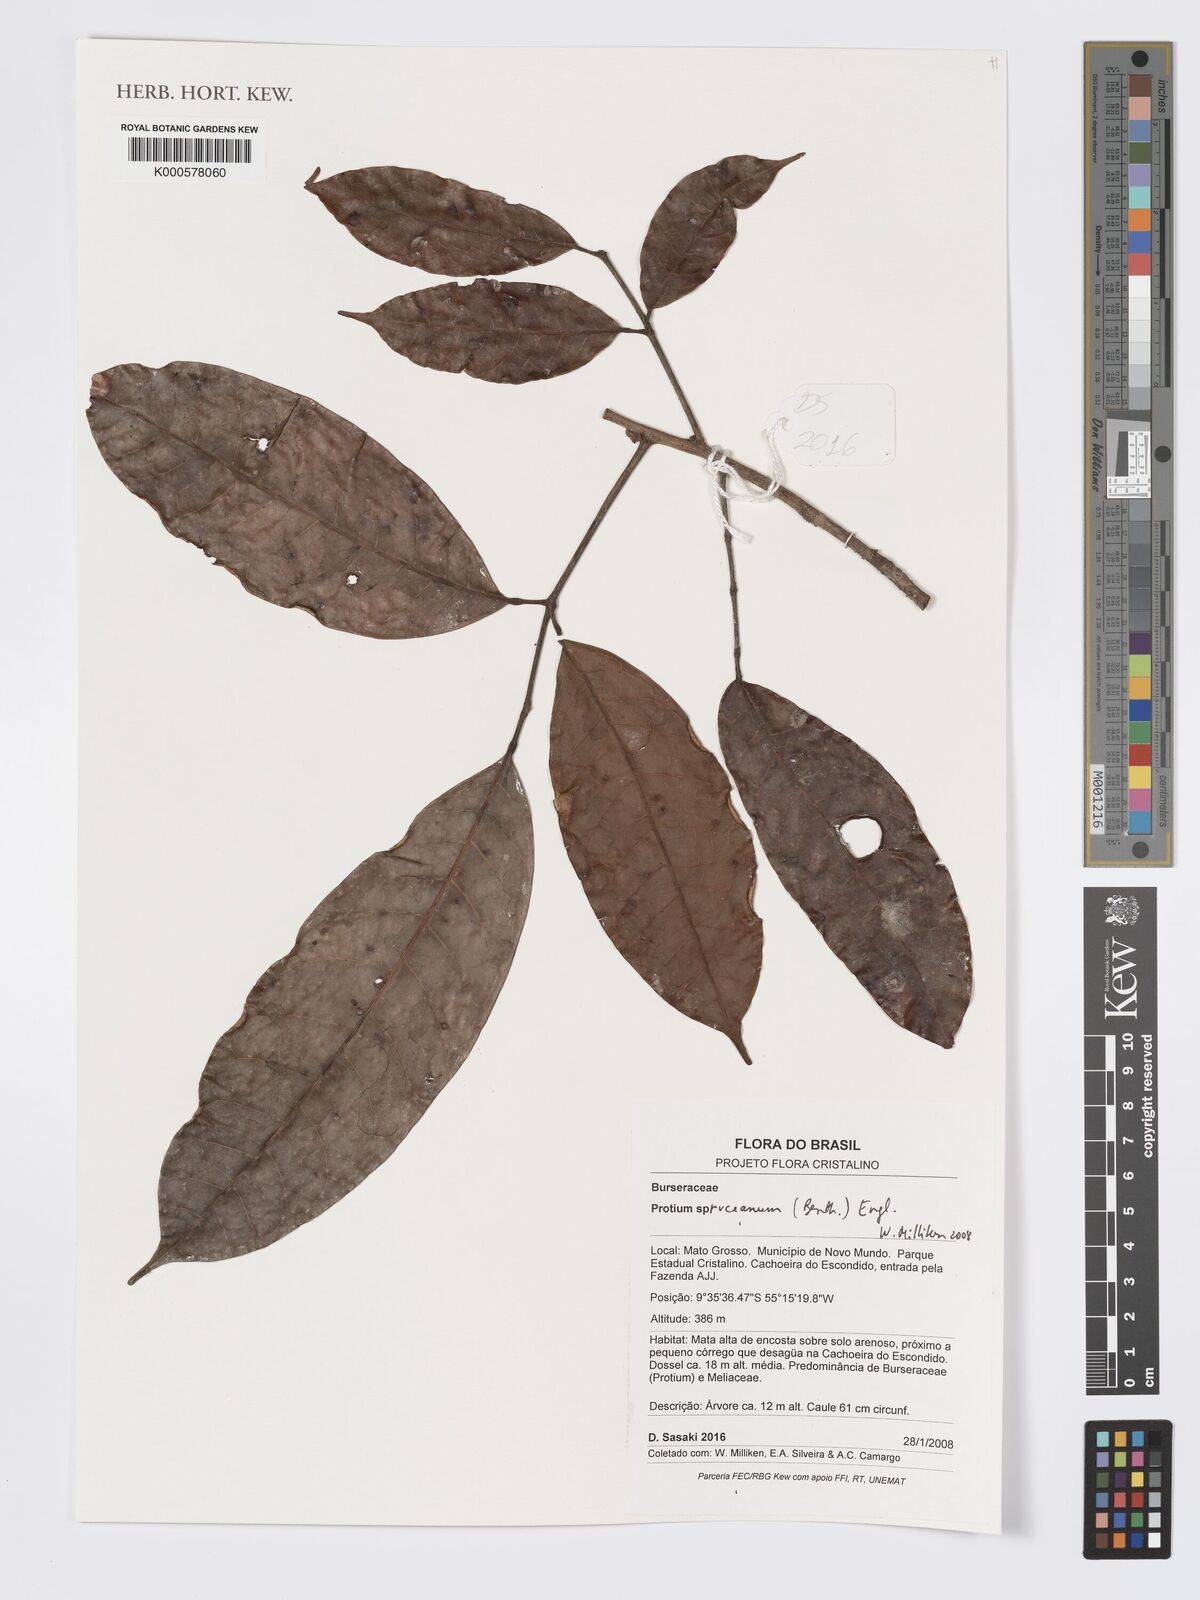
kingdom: Plantae
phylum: Tracheophyta
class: Magnoliopsida
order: Sapindales
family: Burseraceae
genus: Protium
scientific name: Protium spruceanum
